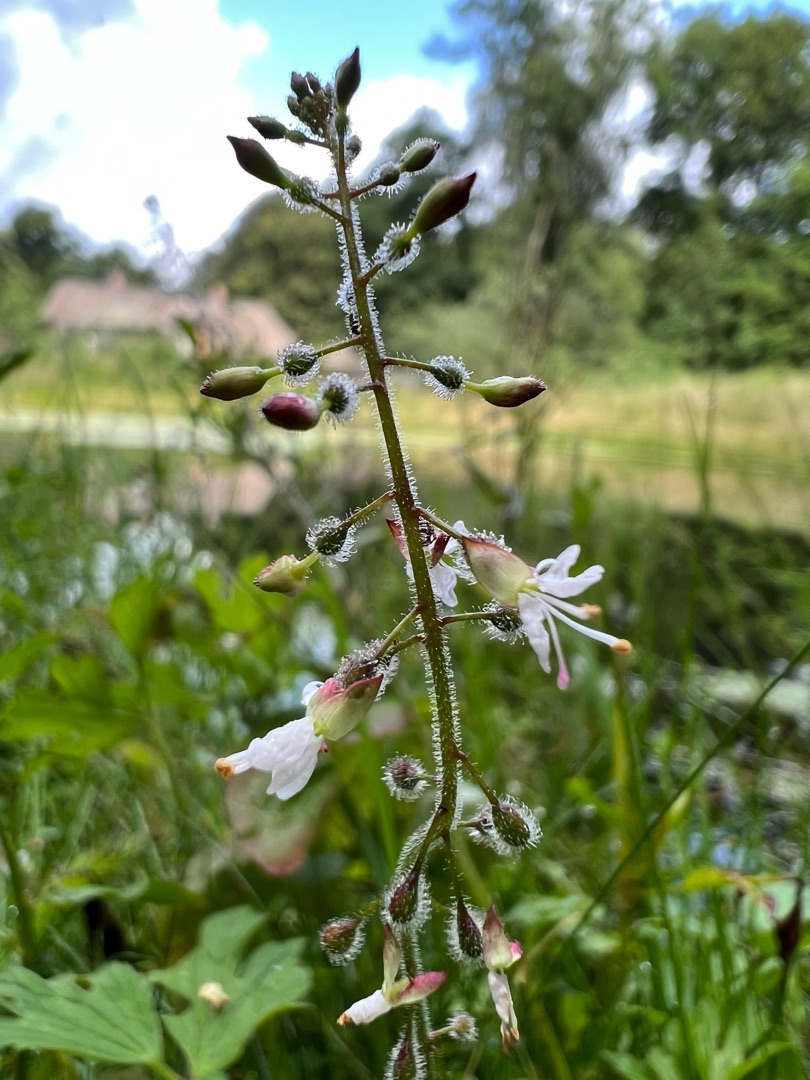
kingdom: Plantae
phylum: Tracheophyta
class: Magnoliopsida
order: Myrtales
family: Onagraceae
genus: Circaea
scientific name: Circaea lutetiana
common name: Dunet steffensurt
